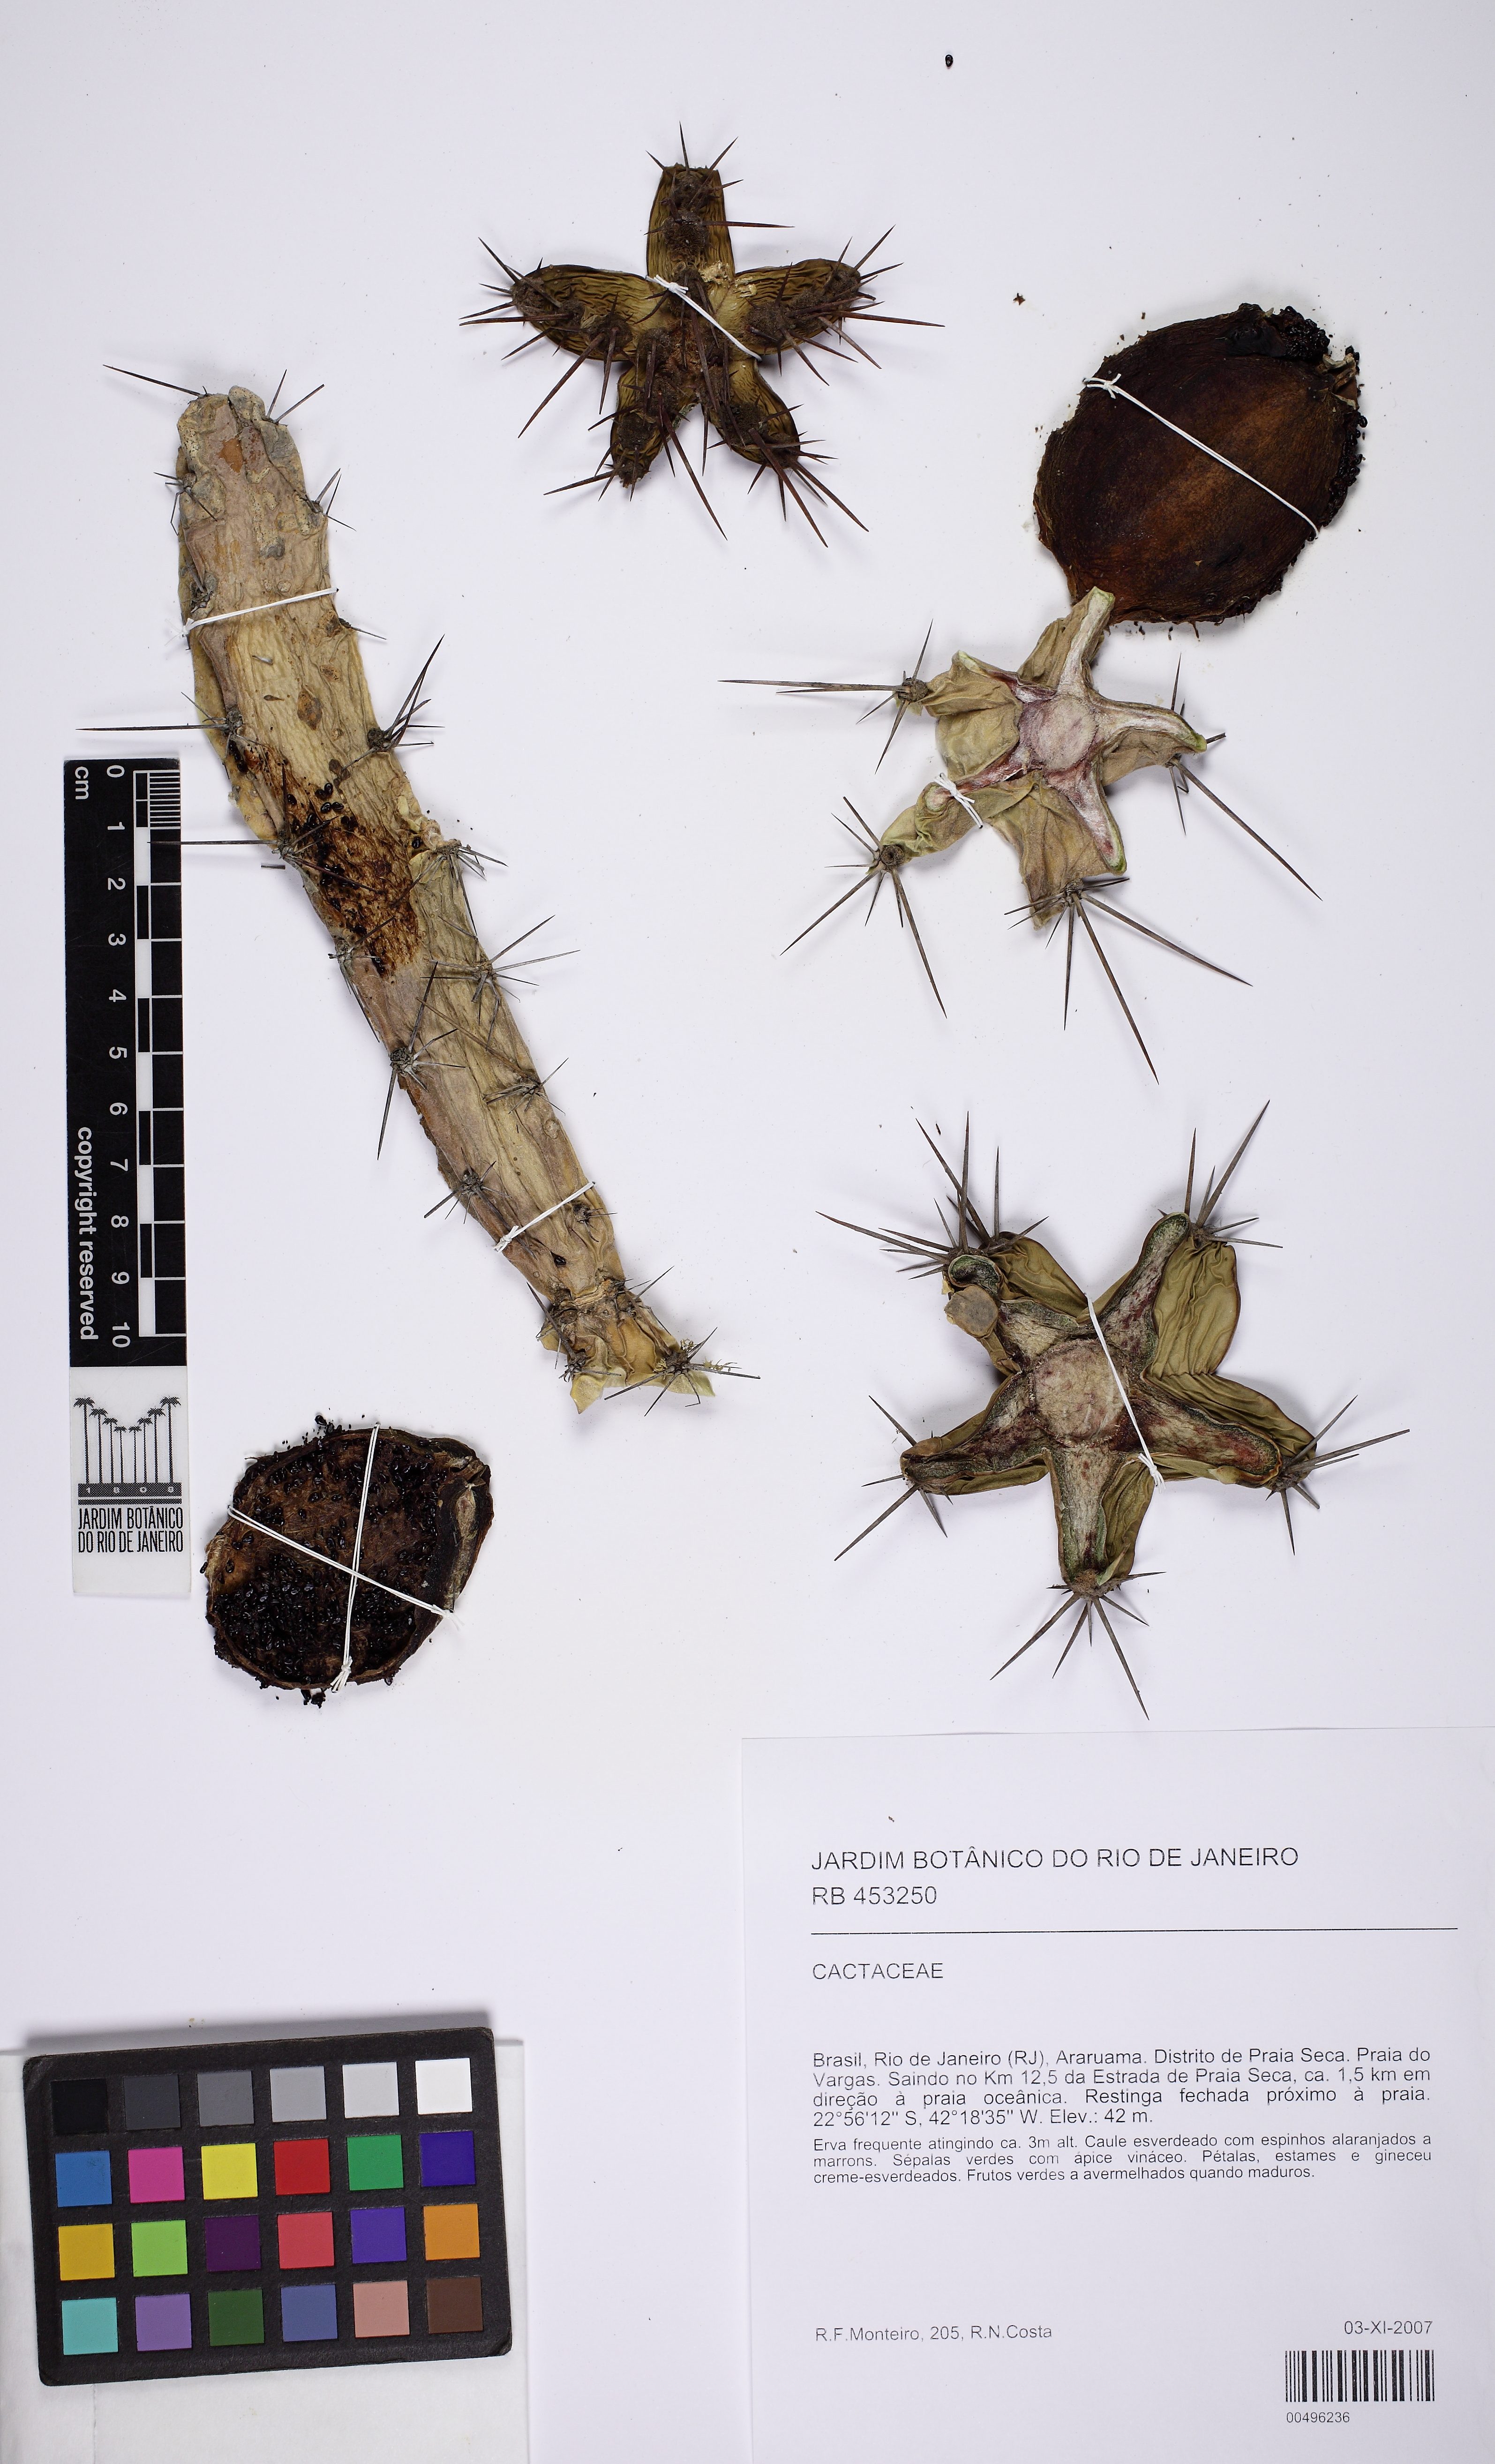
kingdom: Plantae
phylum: Tracheophyta
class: Magnoliopsida
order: Caryophyllales
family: Cactaceae
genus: Cereus
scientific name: Cereus fernambucensis
